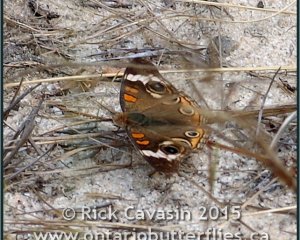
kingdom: Animalia
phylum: Arthropoda
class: Insecta
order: Lepidoptera
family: Nymphalidae
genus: Junonia
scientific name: Junonia coenia
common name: Common Buckeye
